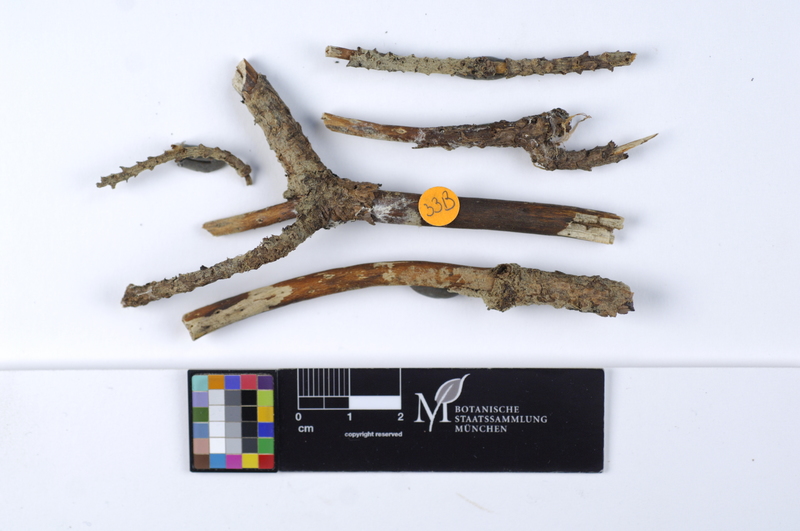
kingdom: Plantae
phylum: Tracheophyta
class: Pinopsida
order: Pinales
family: Pinaceae
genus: Pinus
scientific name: Pinus
